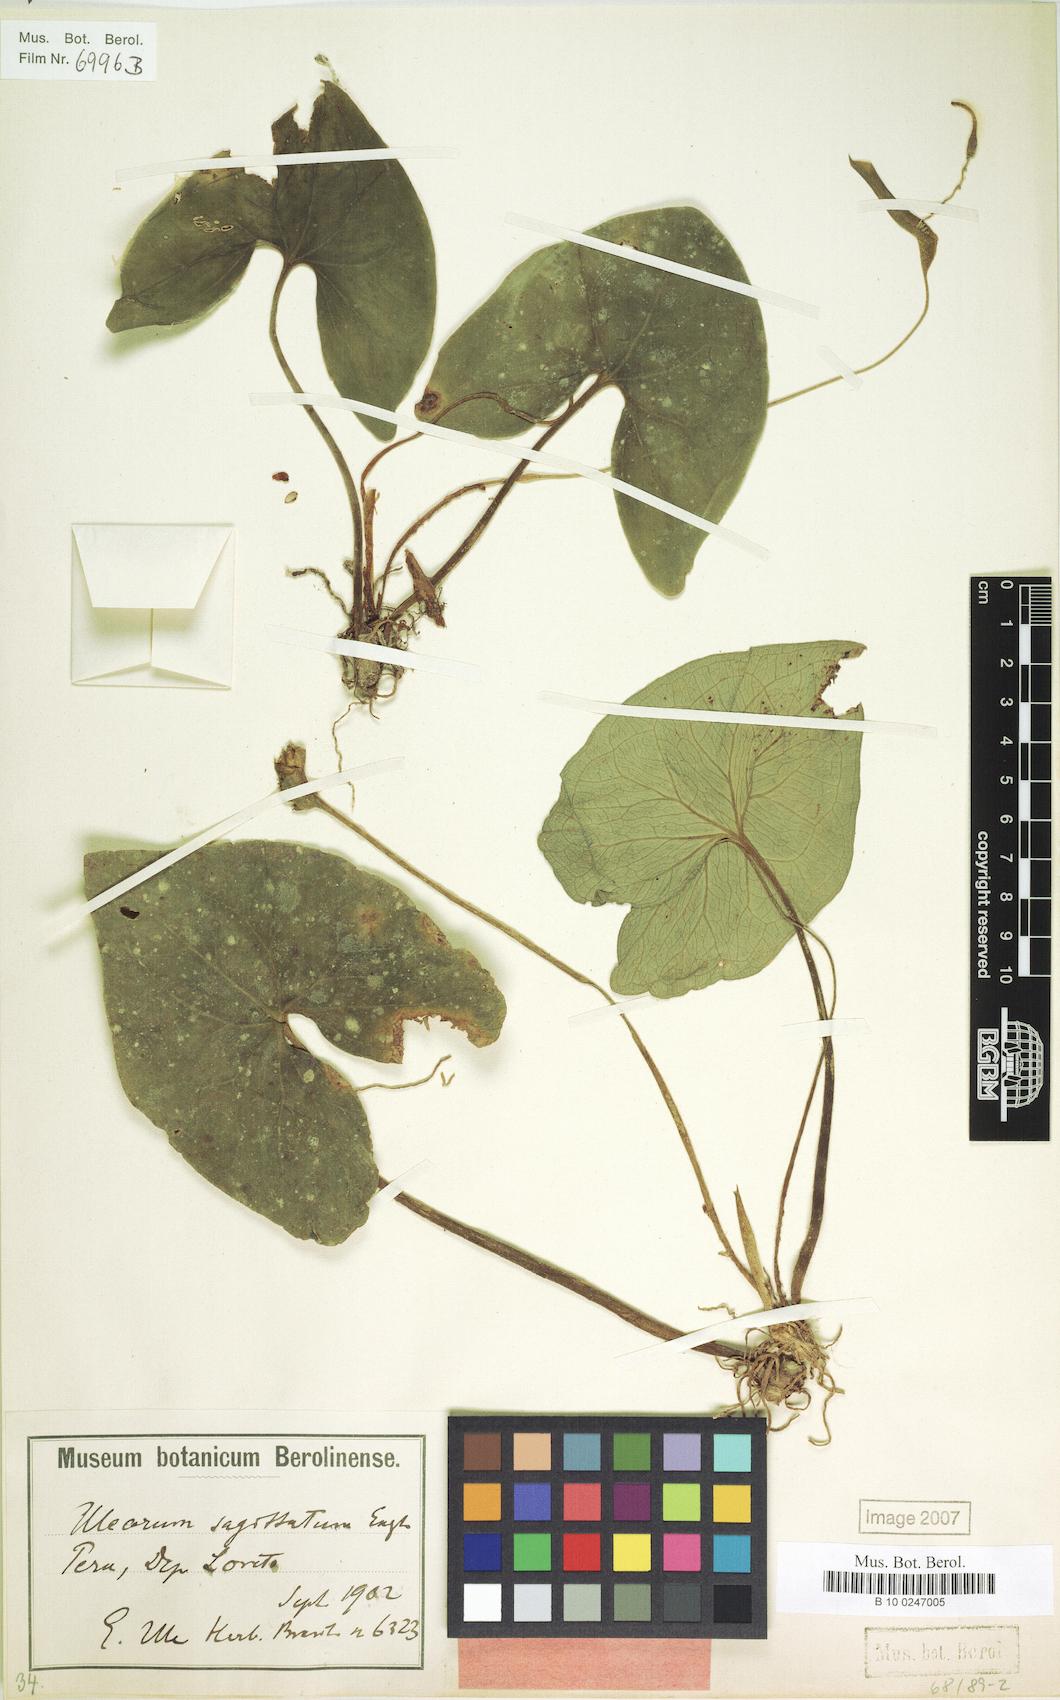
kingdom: Plantae
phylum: Tracheophyta
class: Liliopsida
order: Alismatales
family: Araceae
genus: Ulearum
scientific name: Ulearum sagittatum
